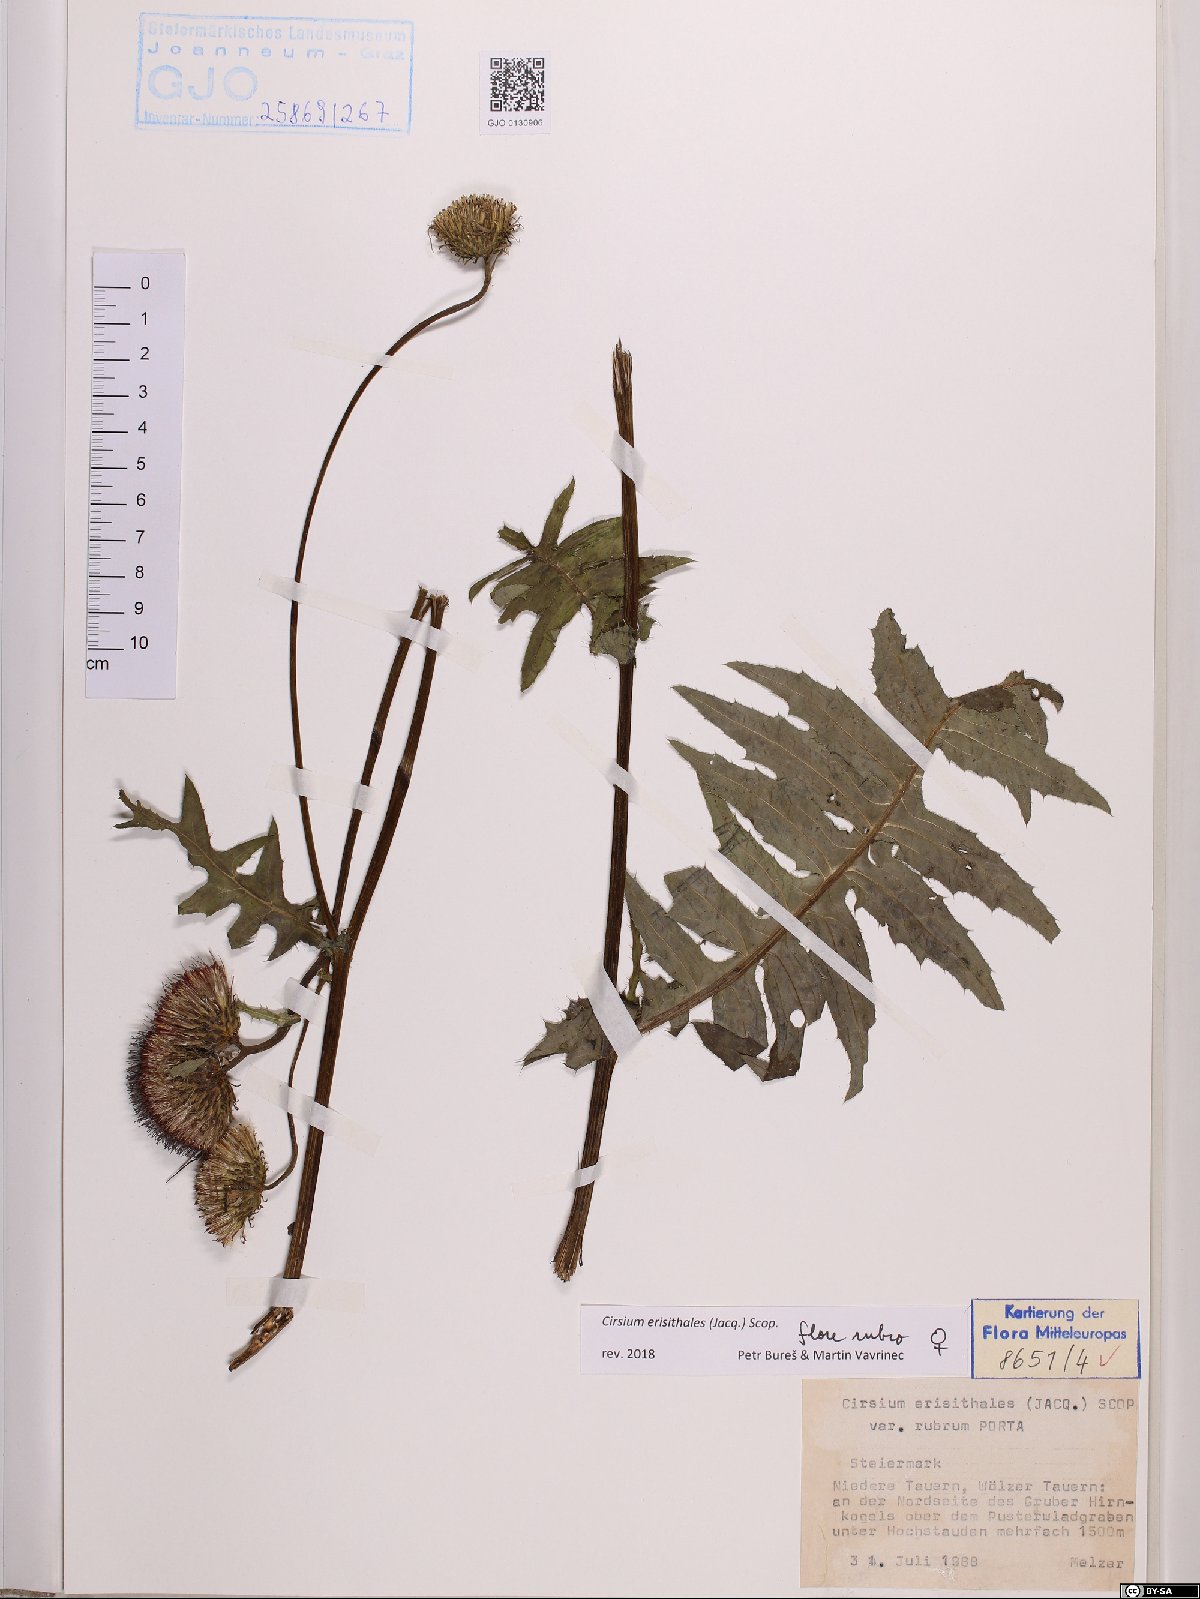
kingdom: Plantae
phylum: Tracheophyta
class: Magnoliopsida
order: Asterales
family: Asteraceae
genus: Cirsium
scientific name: Cirsium erisithales
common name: Yellow thistle
